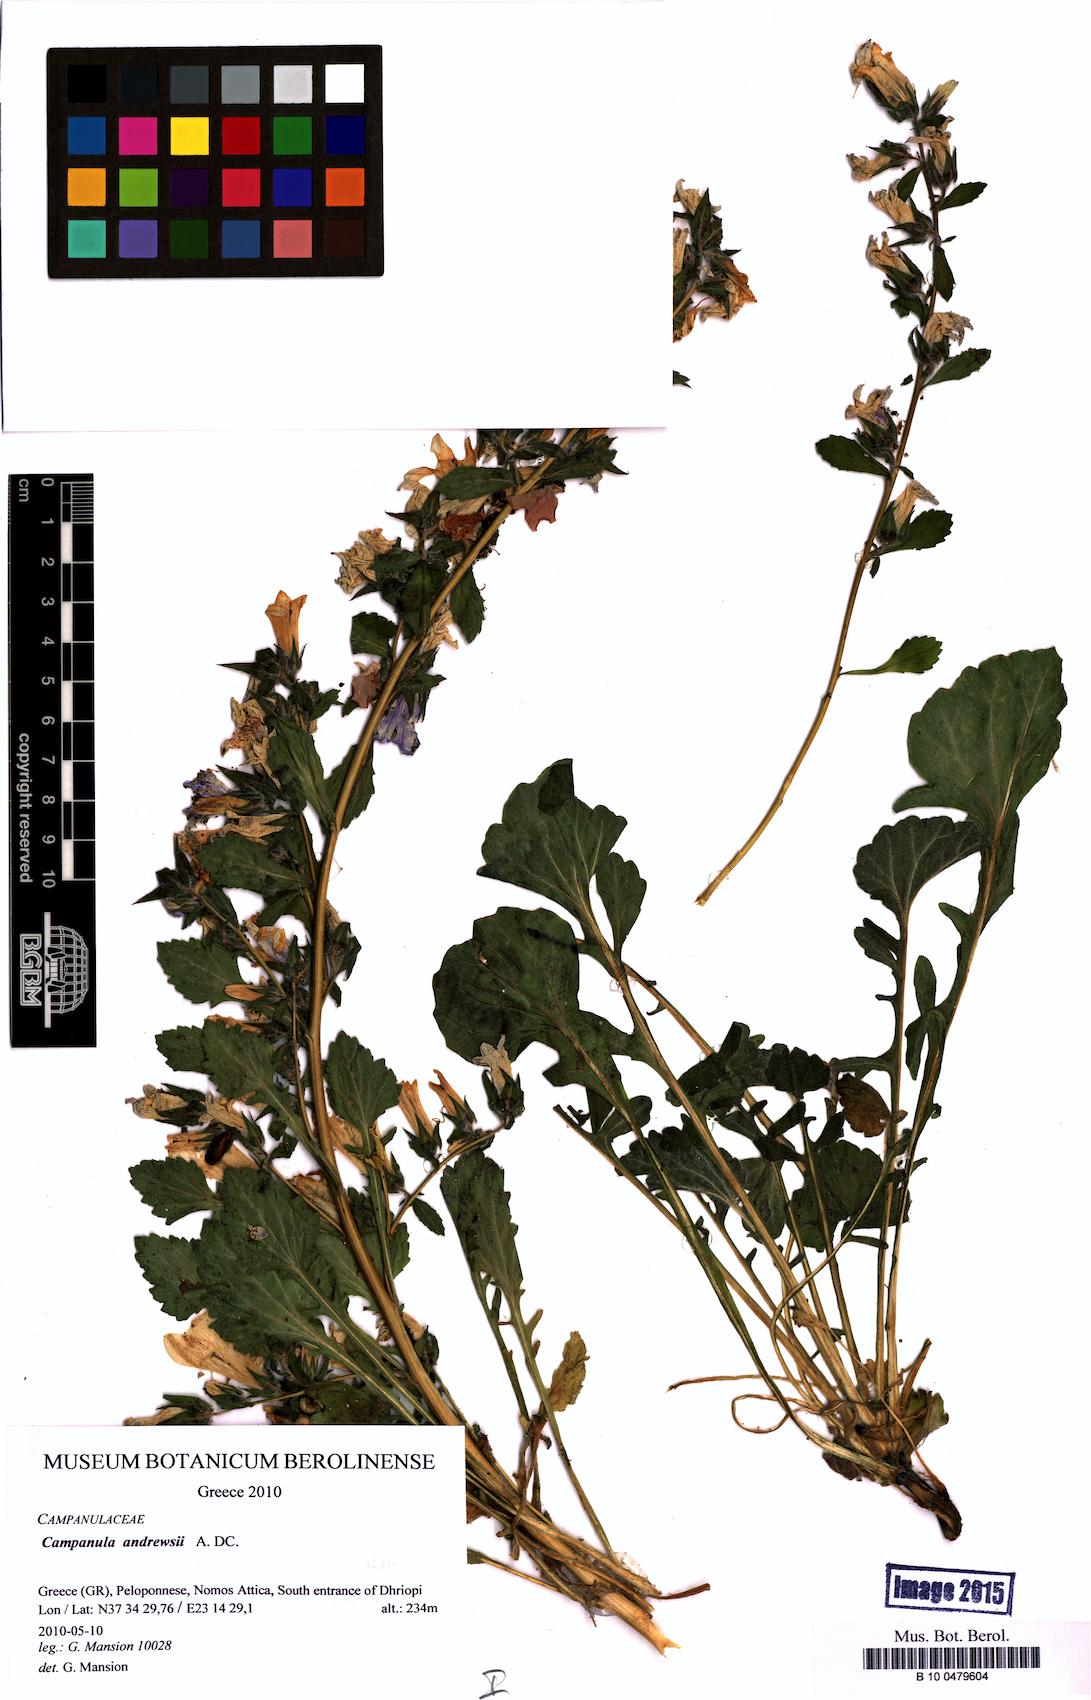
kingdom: Plantae
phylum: Tracheophyta
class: Magnoliopsida
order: Asterales
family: Campanulaceae
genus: Campanula
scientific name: Campanula andrewsii
